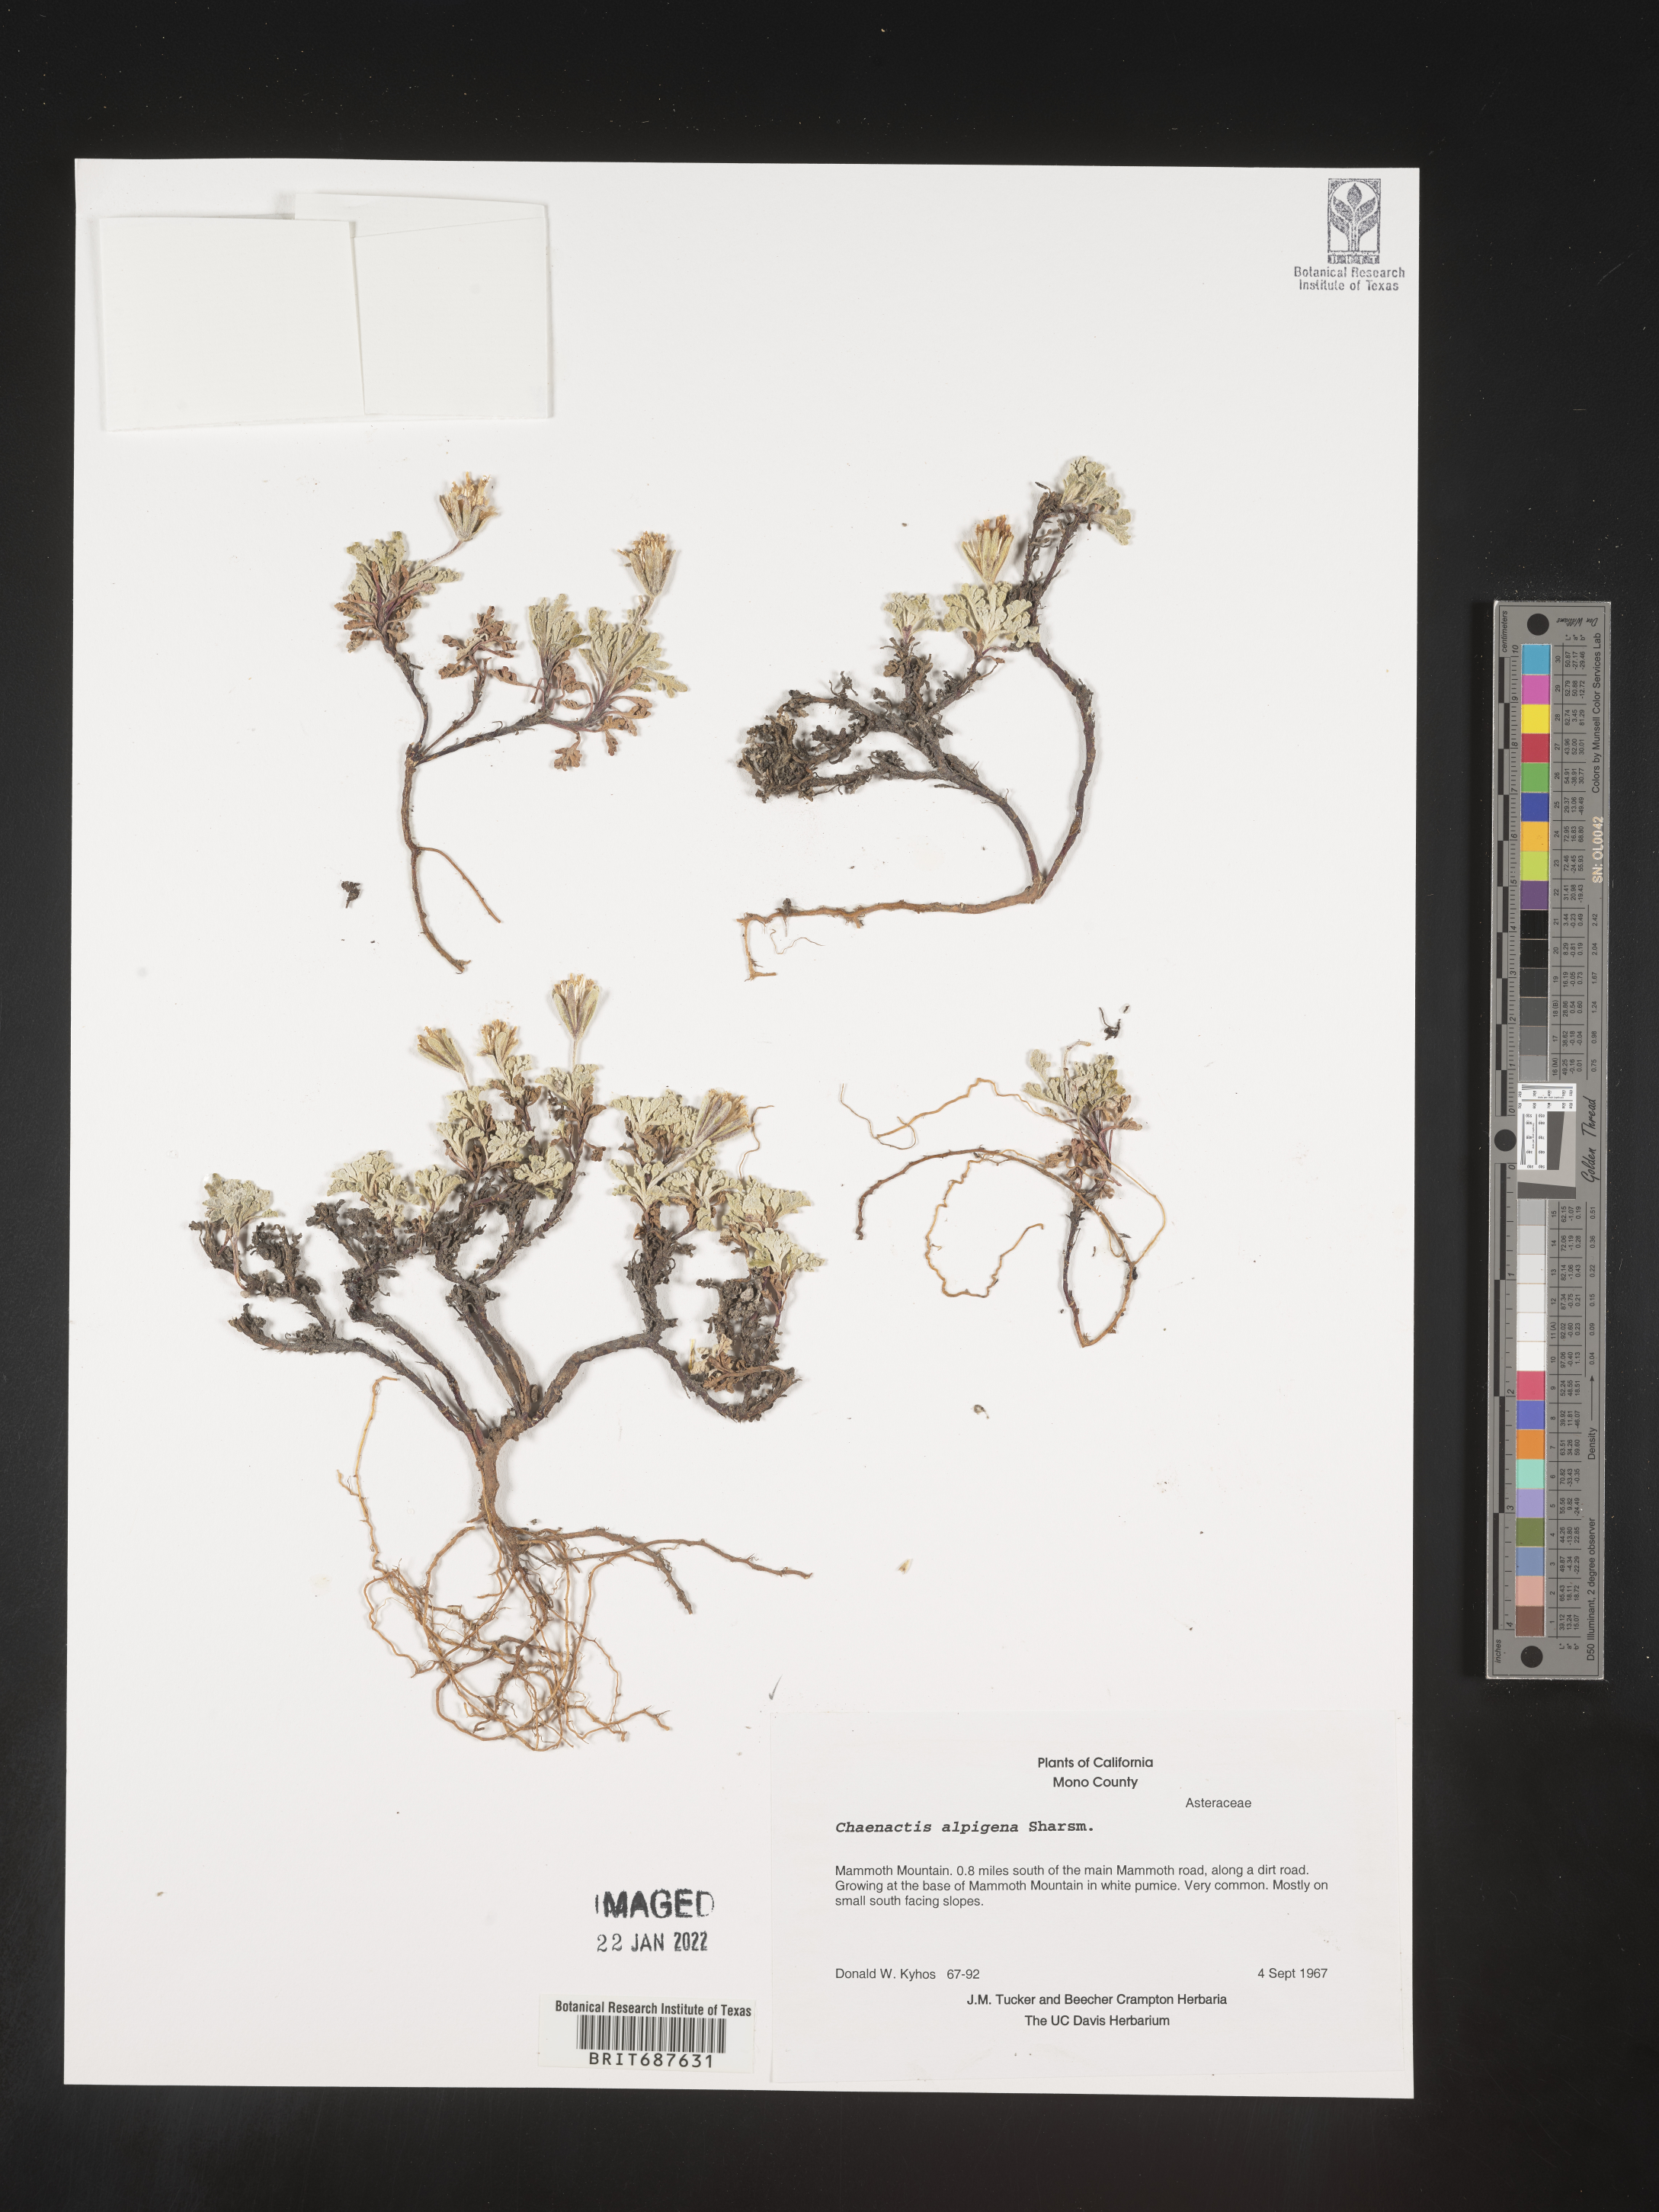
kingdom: Plantae
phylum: Tracheophyta
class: Magnoliopsida
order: Asterales
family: Asteraceae
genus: Chaenactis
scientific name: Chaenactis
